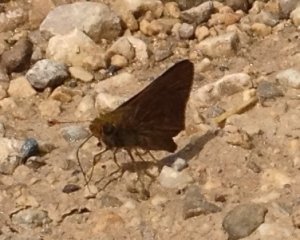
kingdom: Animalia
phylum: Arthropoda
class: Insecta
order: Lepidoptera
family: Hesperiidae
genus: Euphyes
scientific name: Euphyes vestris
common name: Dun Skipper
